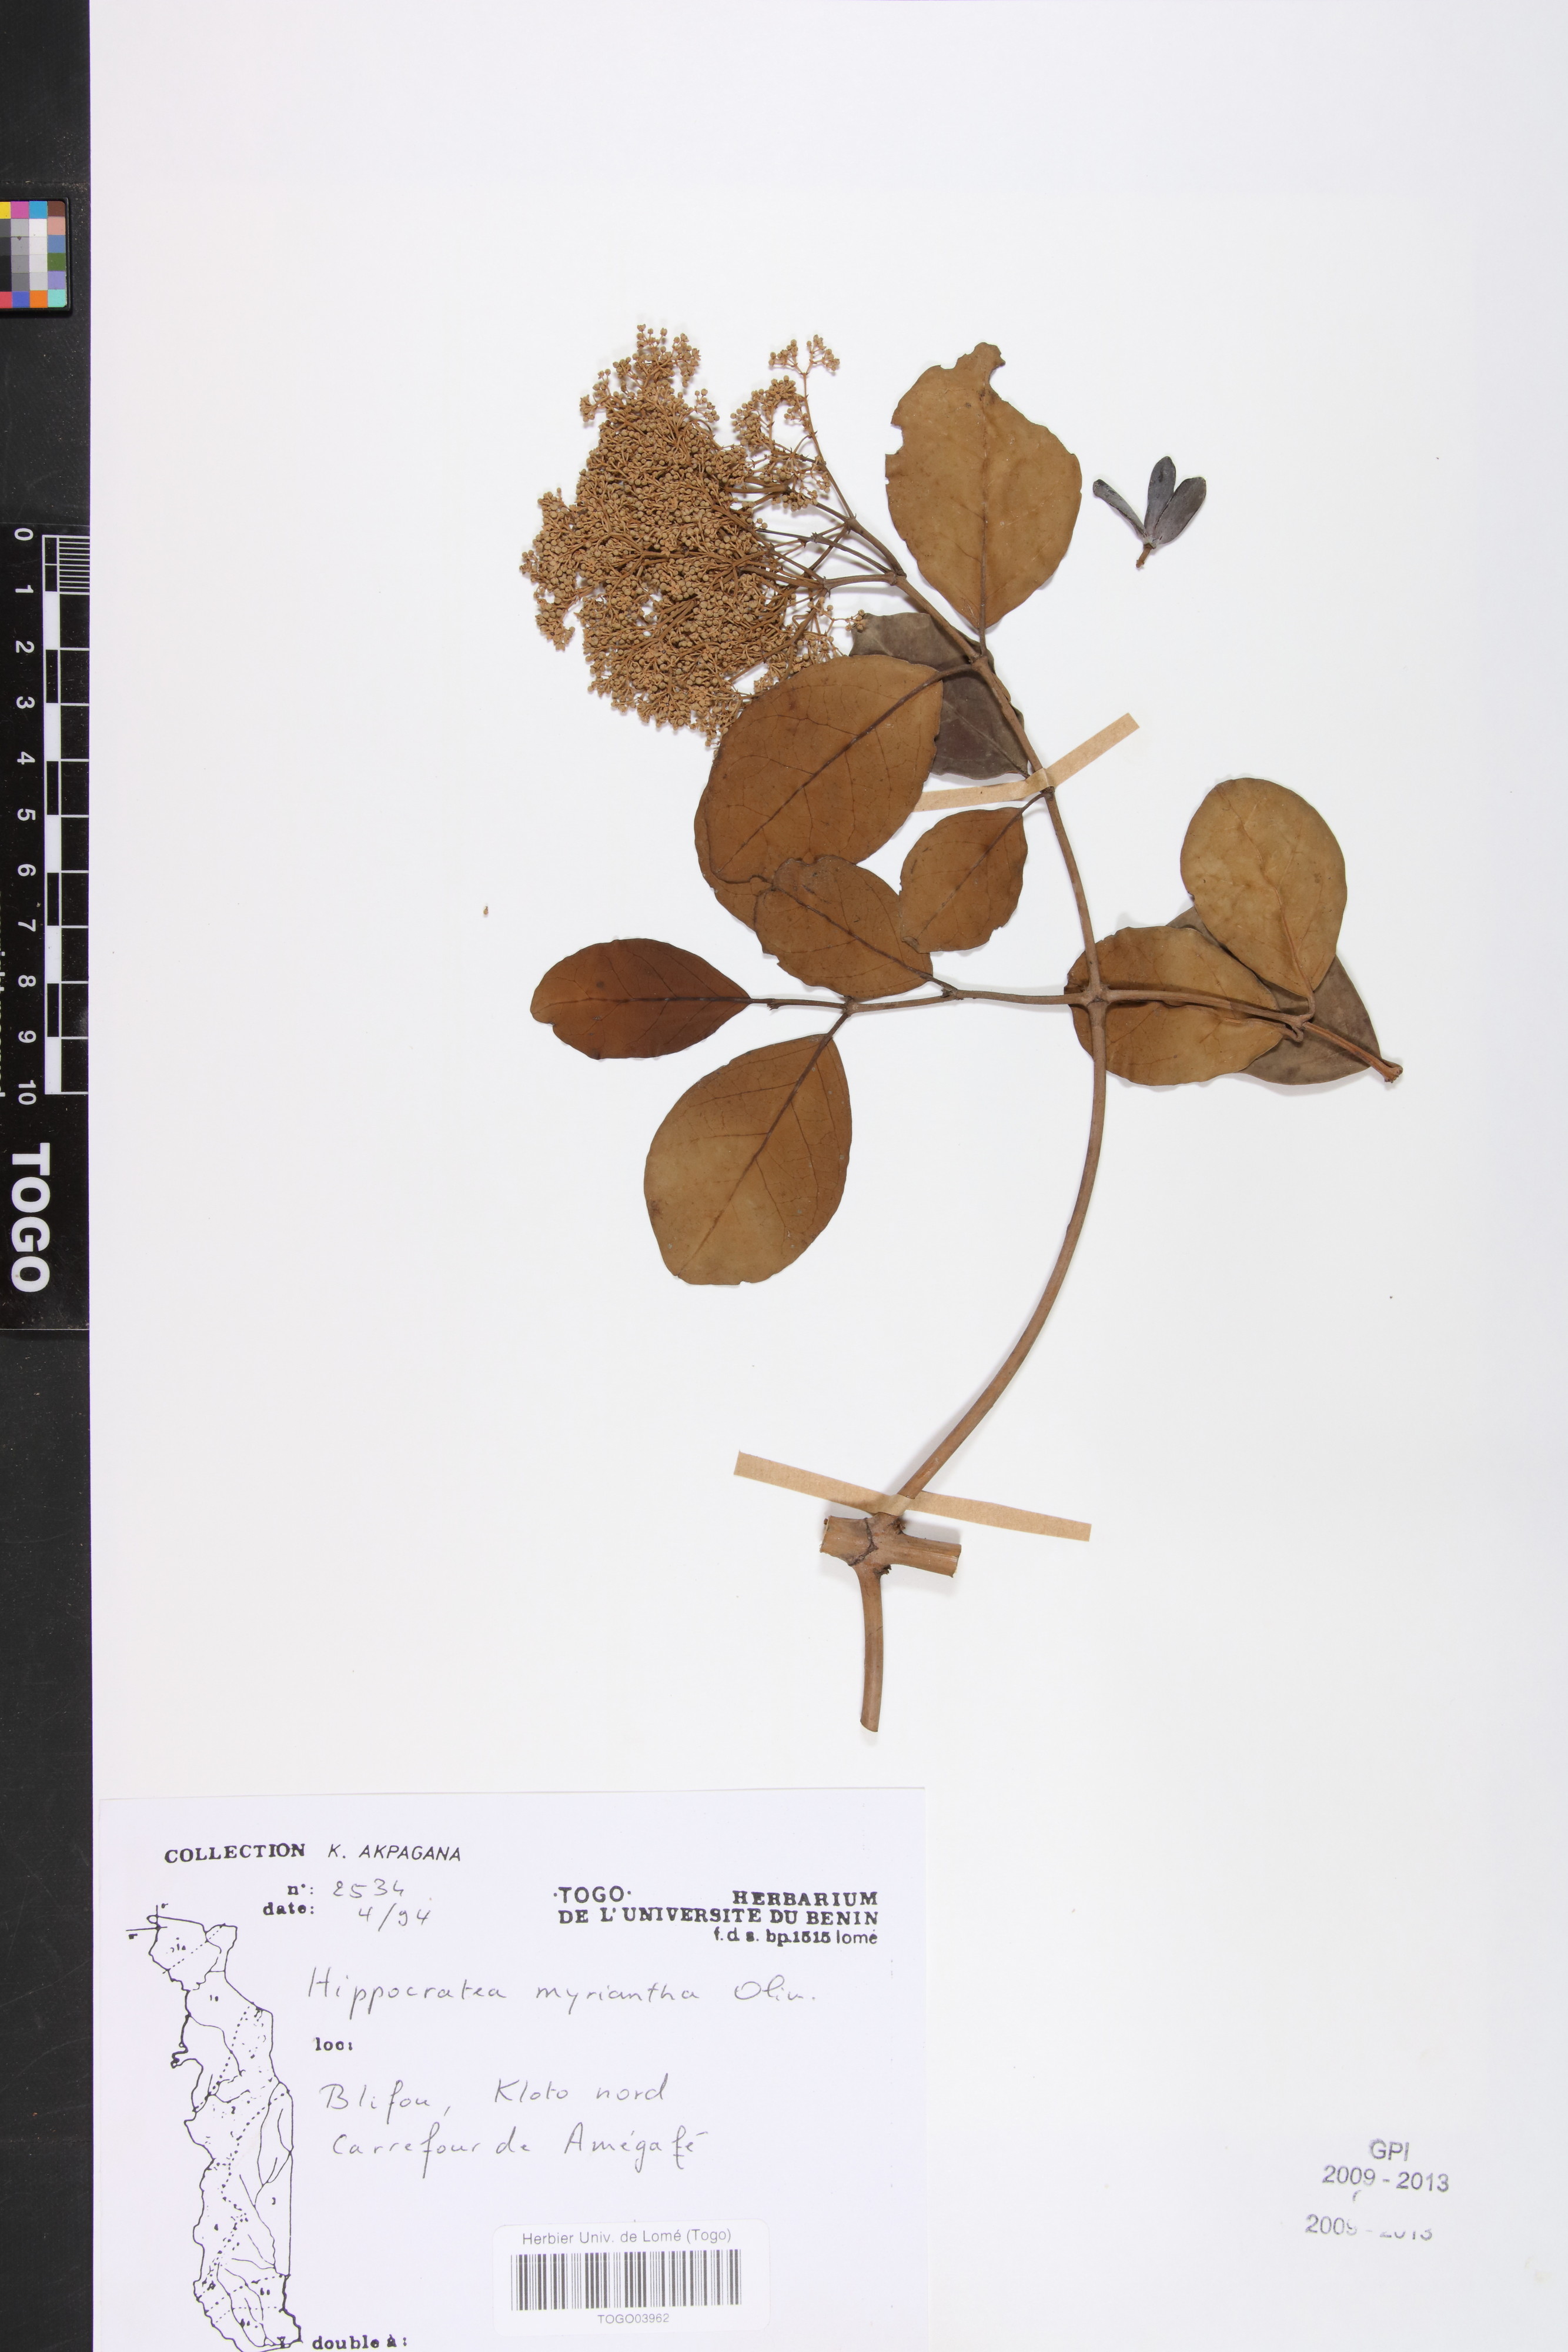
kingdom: Plantae
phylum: Tracheophyta
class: Magnoliopsida
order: Celastrales
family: Celastraceae
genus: Hippocratea
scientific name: Hippocratea myriantha
